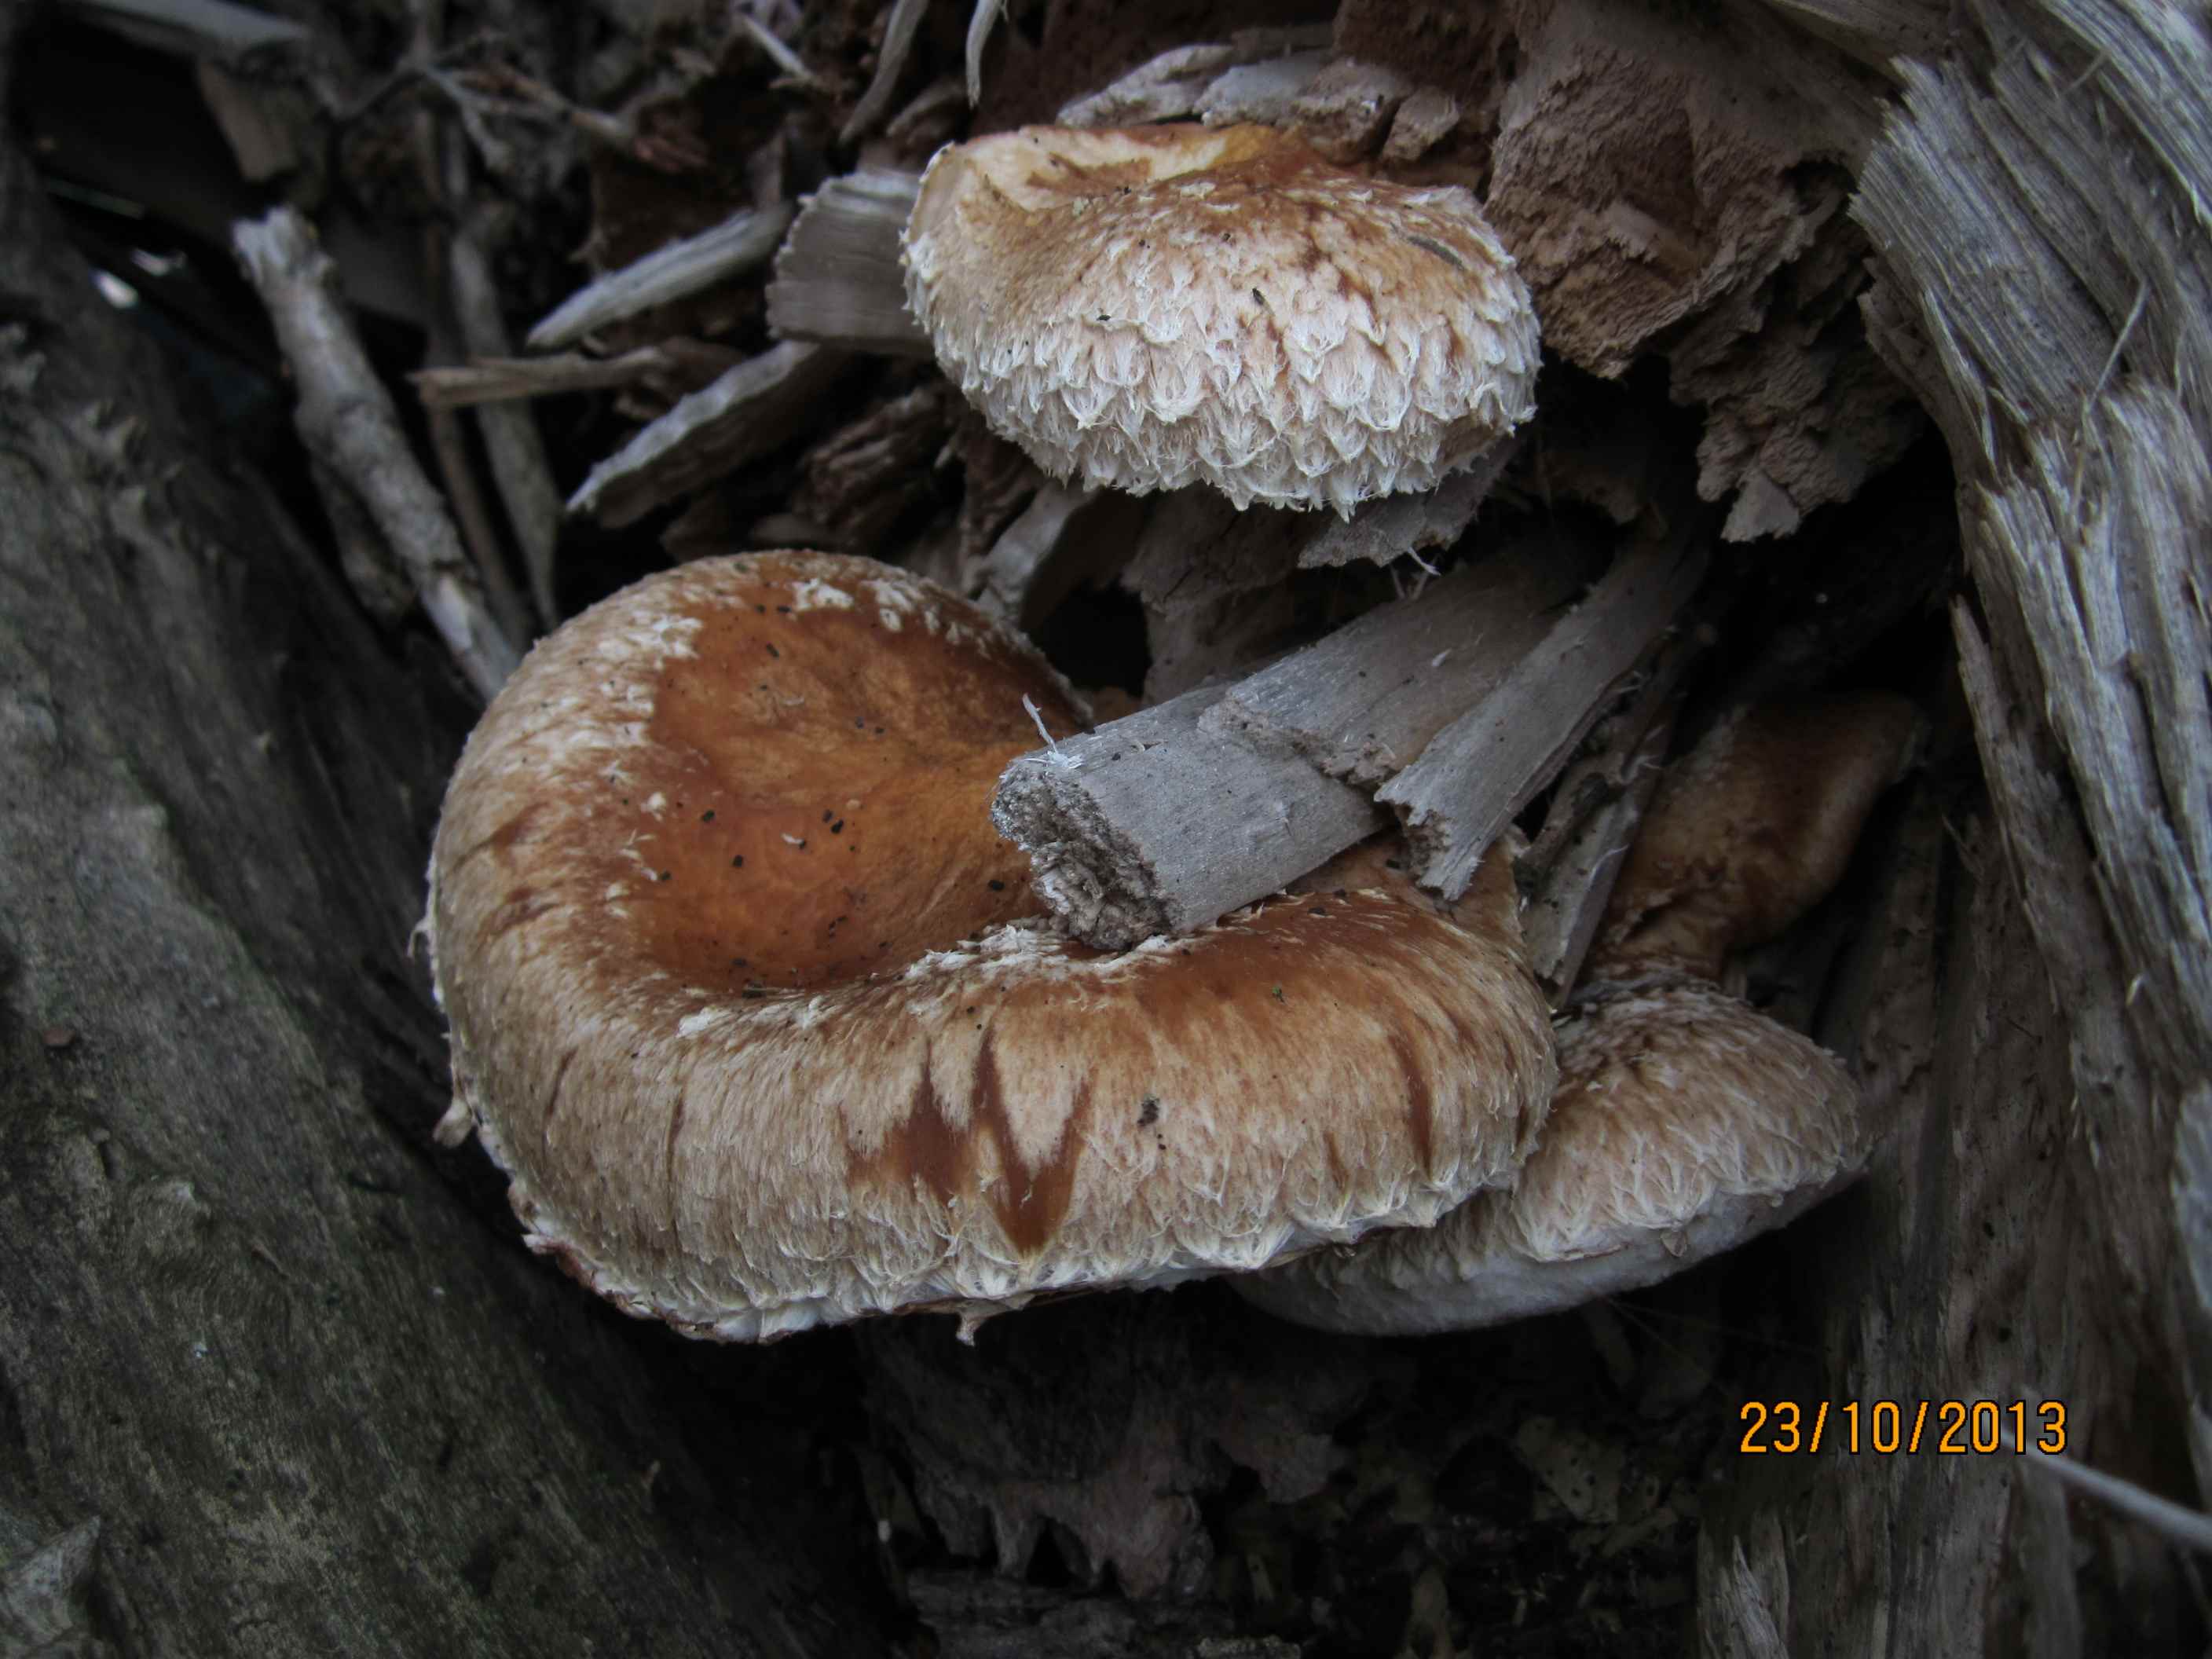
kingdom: Fungi
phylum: Basidiomycota
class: Agaricomycetes
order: Agaricales
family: Strophariaceae
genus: Pholiota
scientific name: Pholiota populnea
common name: poppel-kæmpeskælhat
